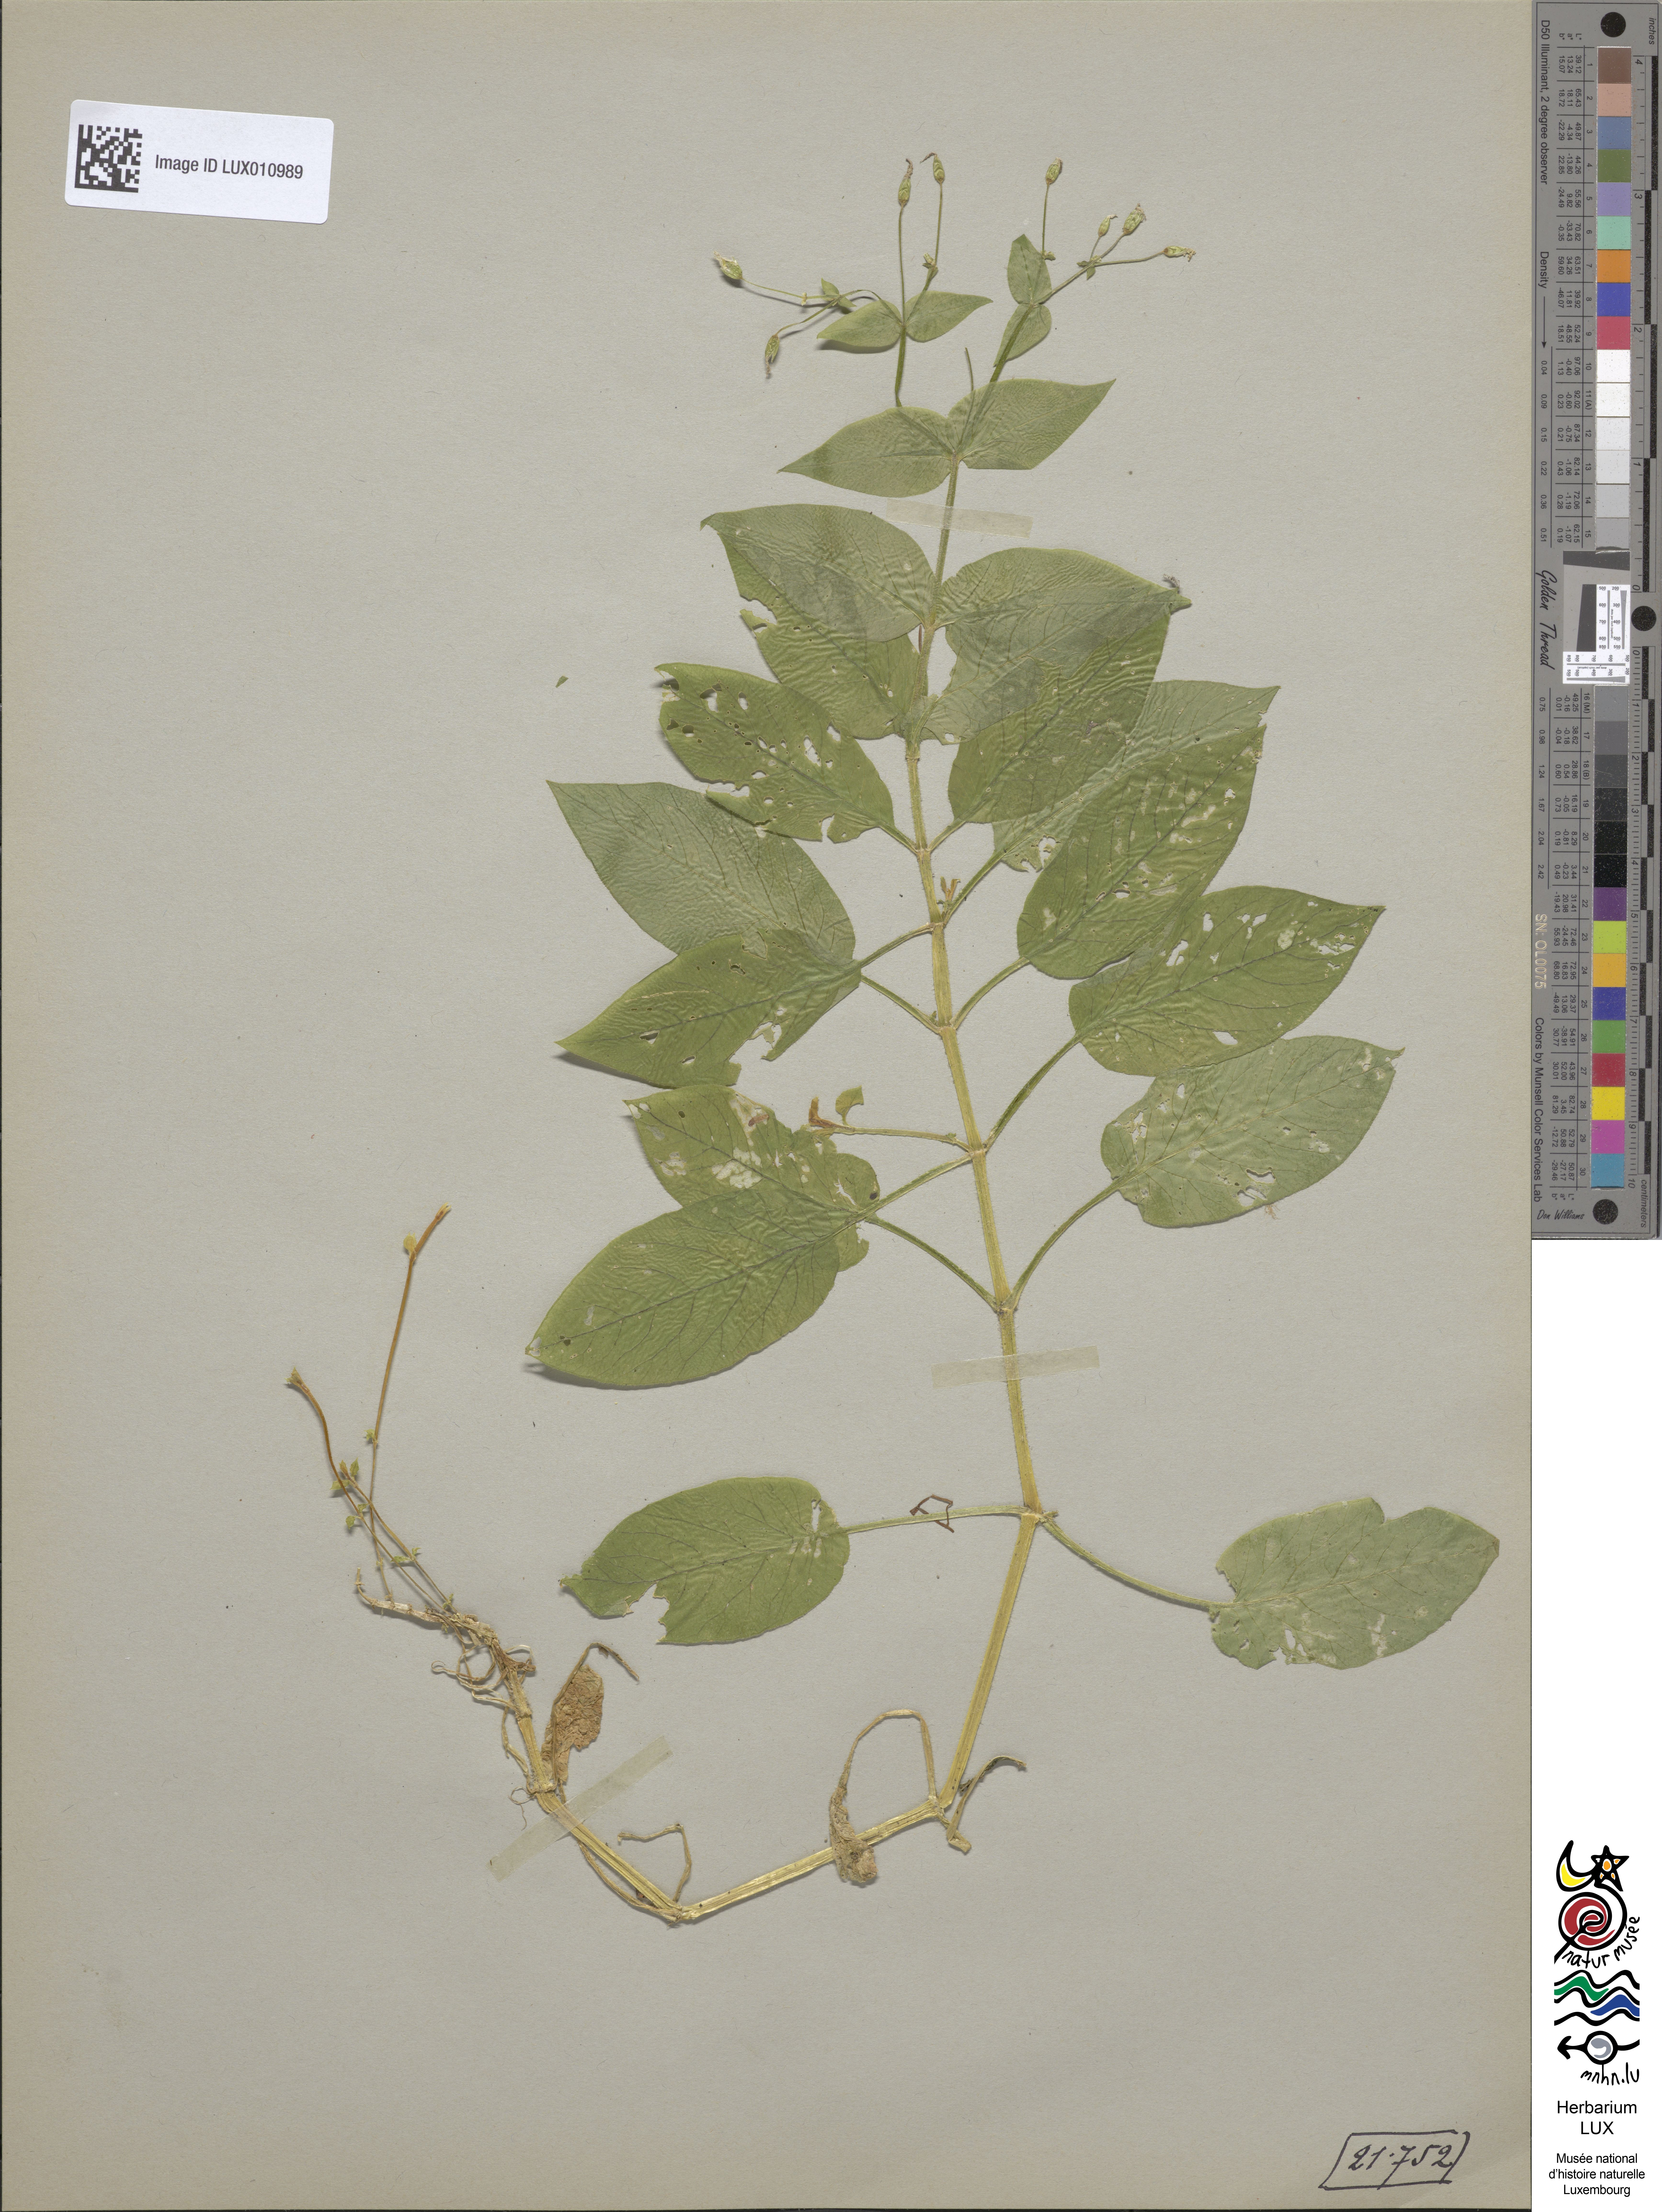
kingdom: Plantae
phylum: Tracheophyta
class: Magnoliopsida
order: Caryophyllales
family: Caryophyllaceae
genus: Stellaria
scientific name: Stellaria nemorum
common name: Wood stitchwort
